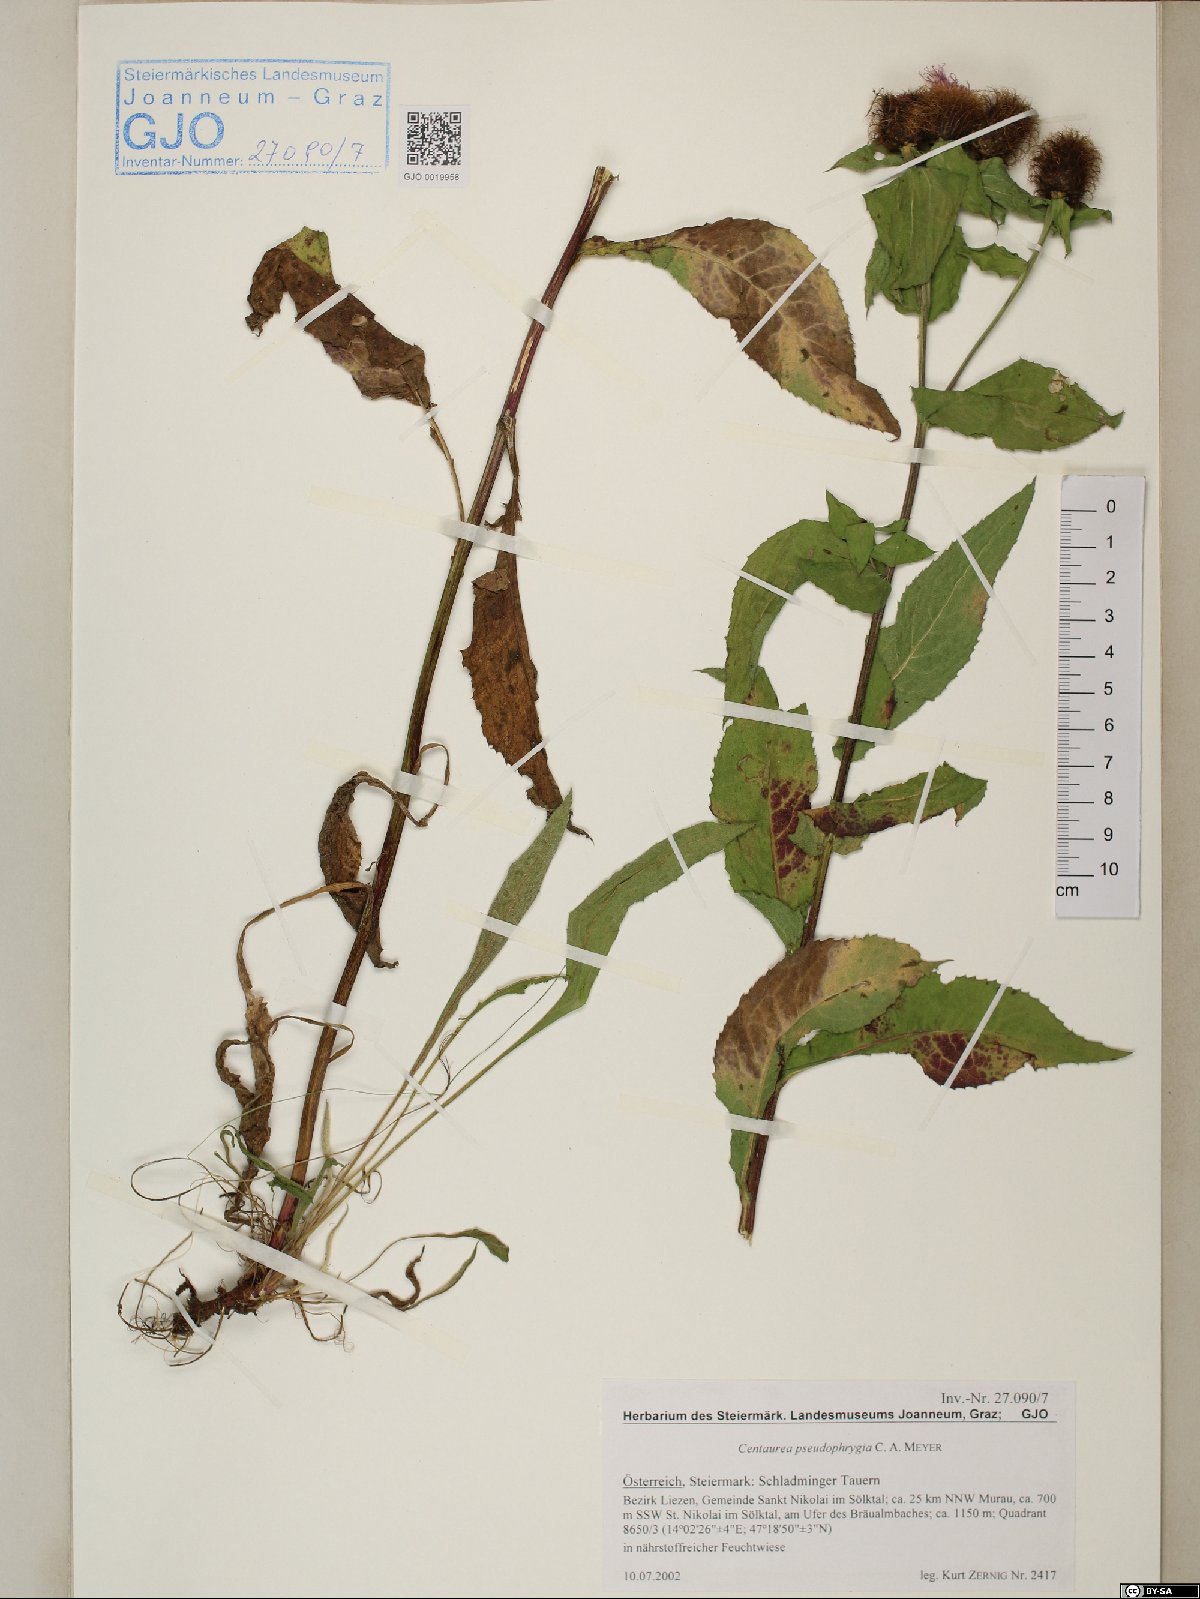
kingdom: Plantae
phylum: Tracheophyta
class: Magnoliopsida
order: Asterales
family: Asteraceae
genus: Centaurea
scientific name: Centaurea pseudophrygia
